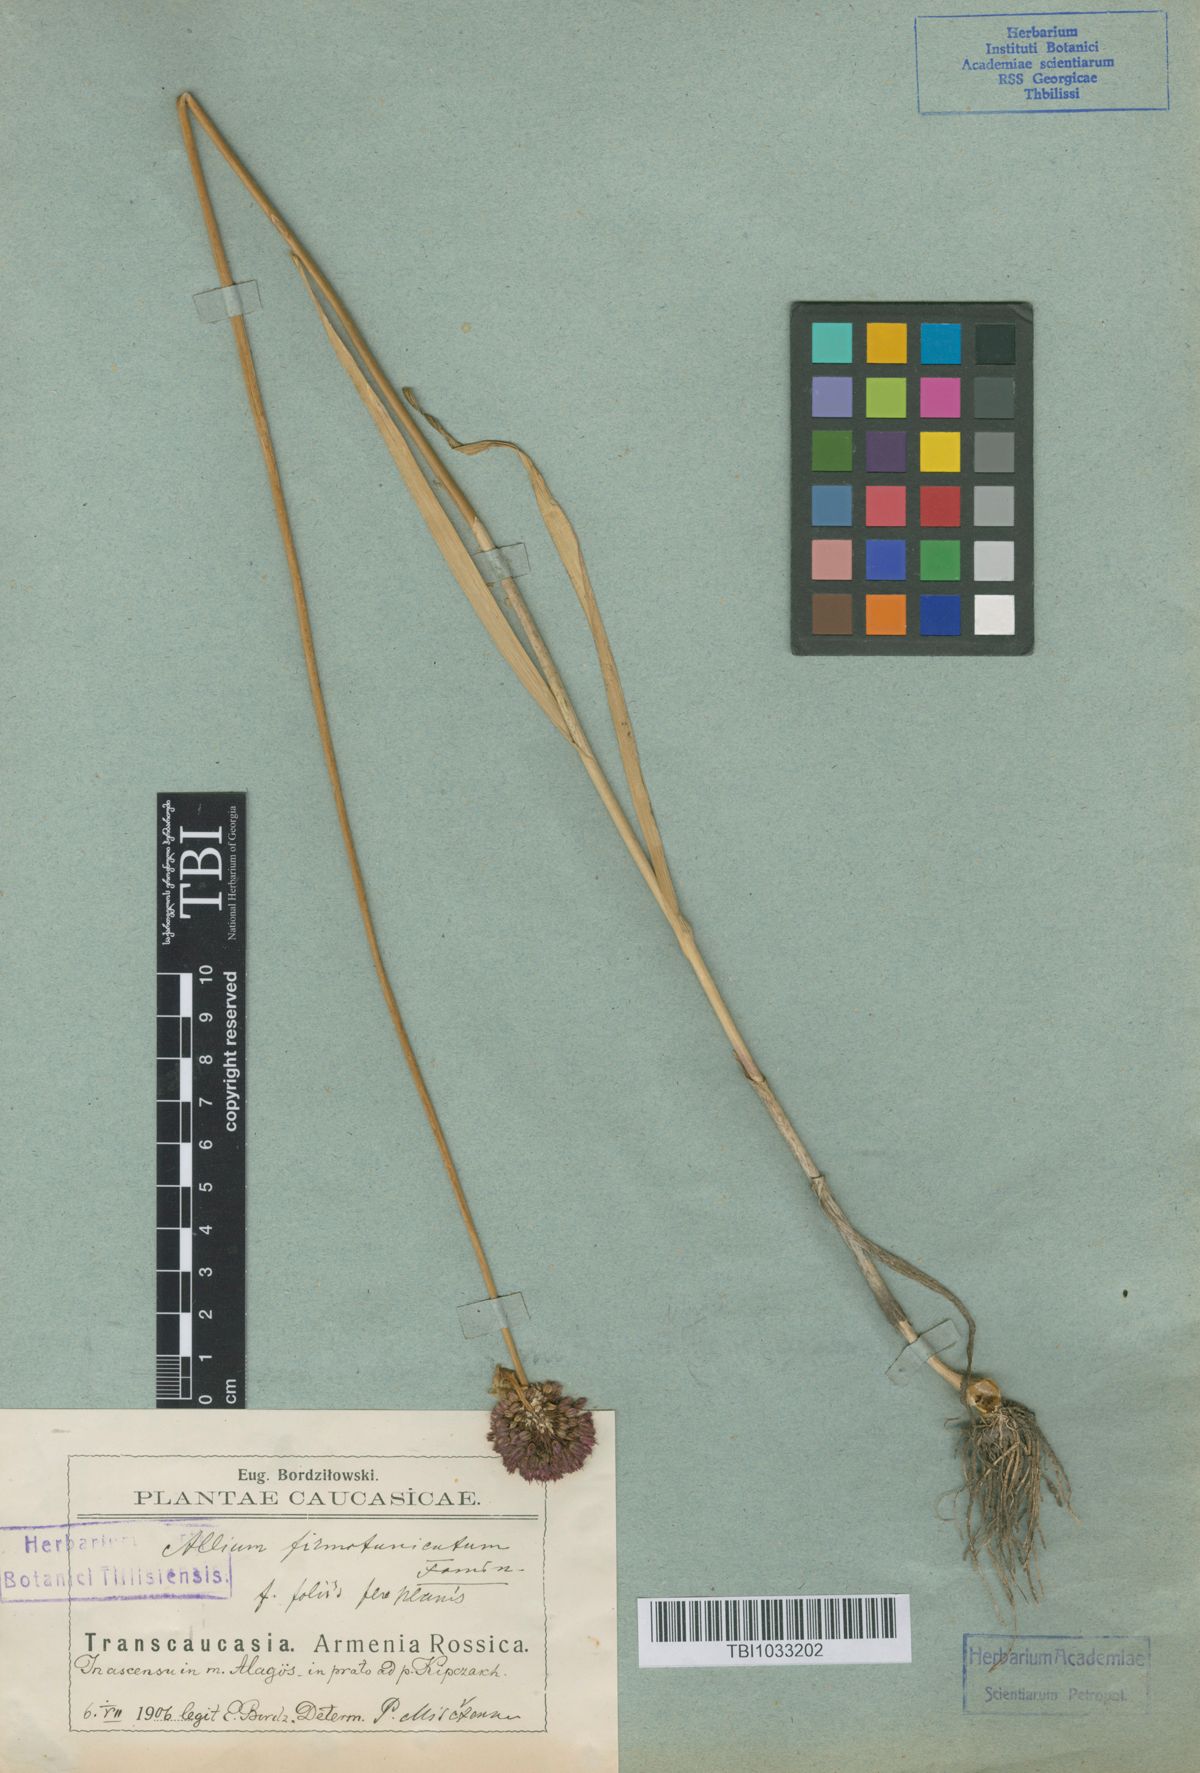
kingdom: Plantae
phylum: Tracheophyta
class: Liliopsida
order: Asparagales
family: Amaryllidaceae
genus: Allium
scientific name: Allium atroviolaceum
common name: Broadleaf wild leek
